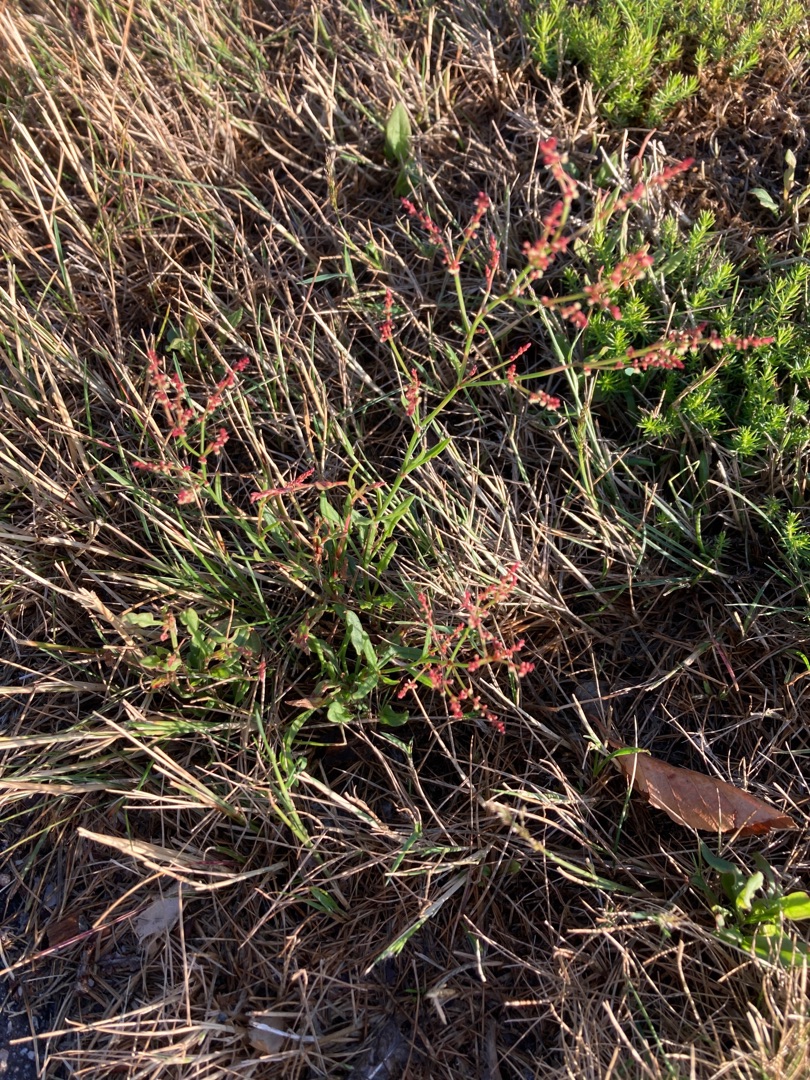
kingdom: Plantae
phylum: Tracheophyta
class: Magnoliopsida
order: Caryophyllales
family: Polygonaceae
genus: Rumex
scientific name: Rumex acetosella
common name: Rødknæ
